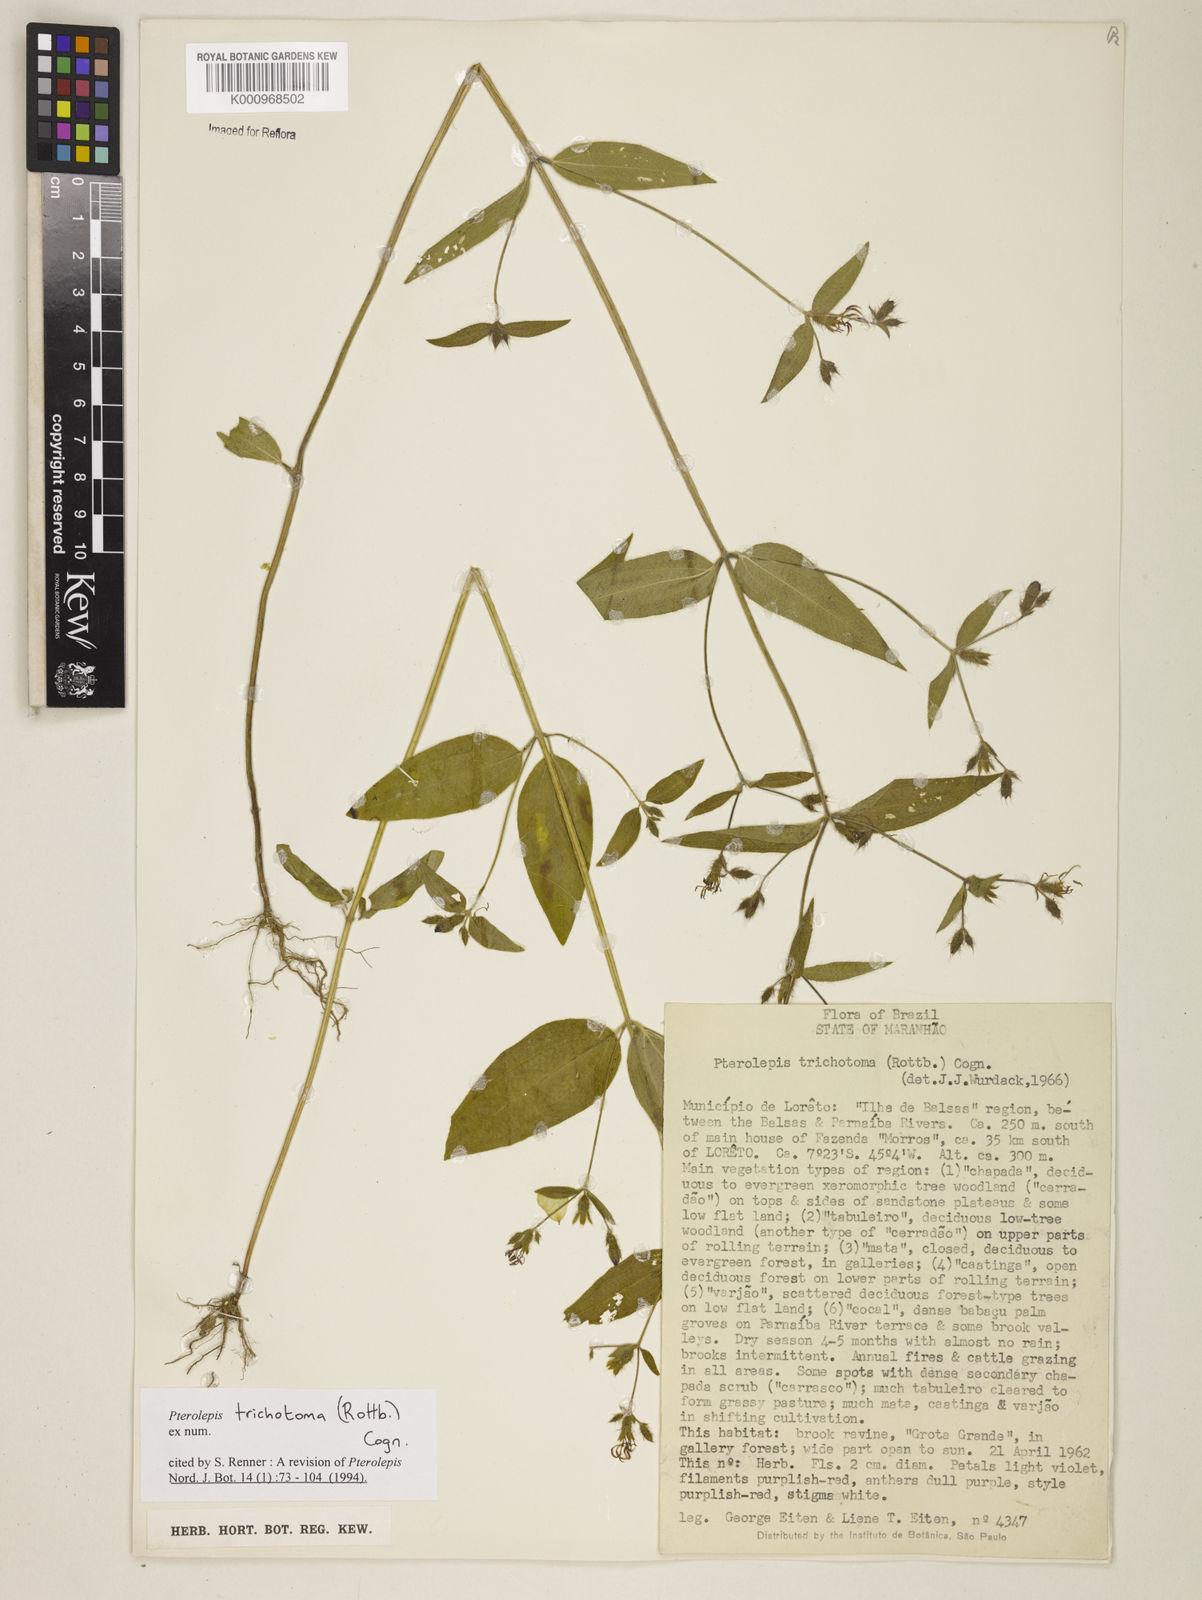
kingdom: Plantae
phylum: Tracheophyta
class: Magnoliopsida
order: Myrtales
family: Melastomataceae
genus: Pterolepis
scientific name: Pterolepis trichotoma
